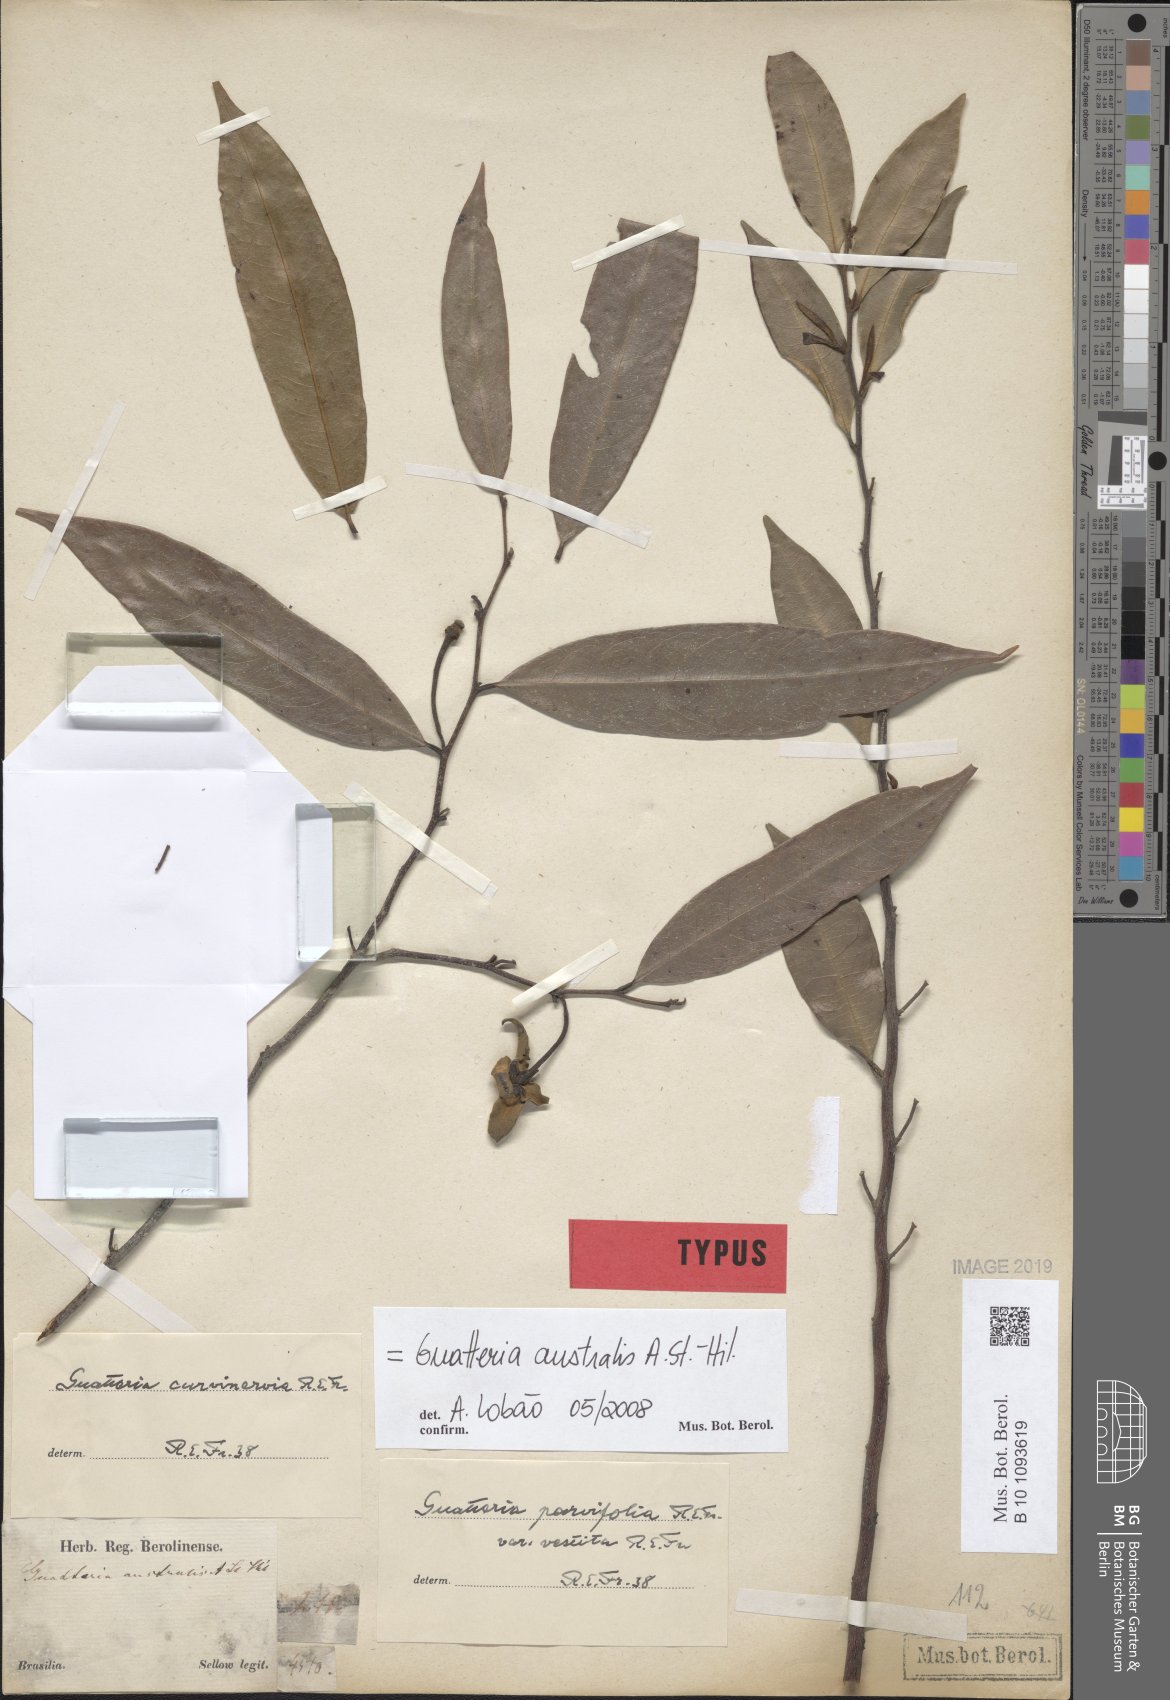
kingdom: Plantae
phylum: Tracheophyta
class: Magnoliopsida
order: Magnoliales
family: Annonaceae
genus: Guatteria
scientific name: Guatteria australis
